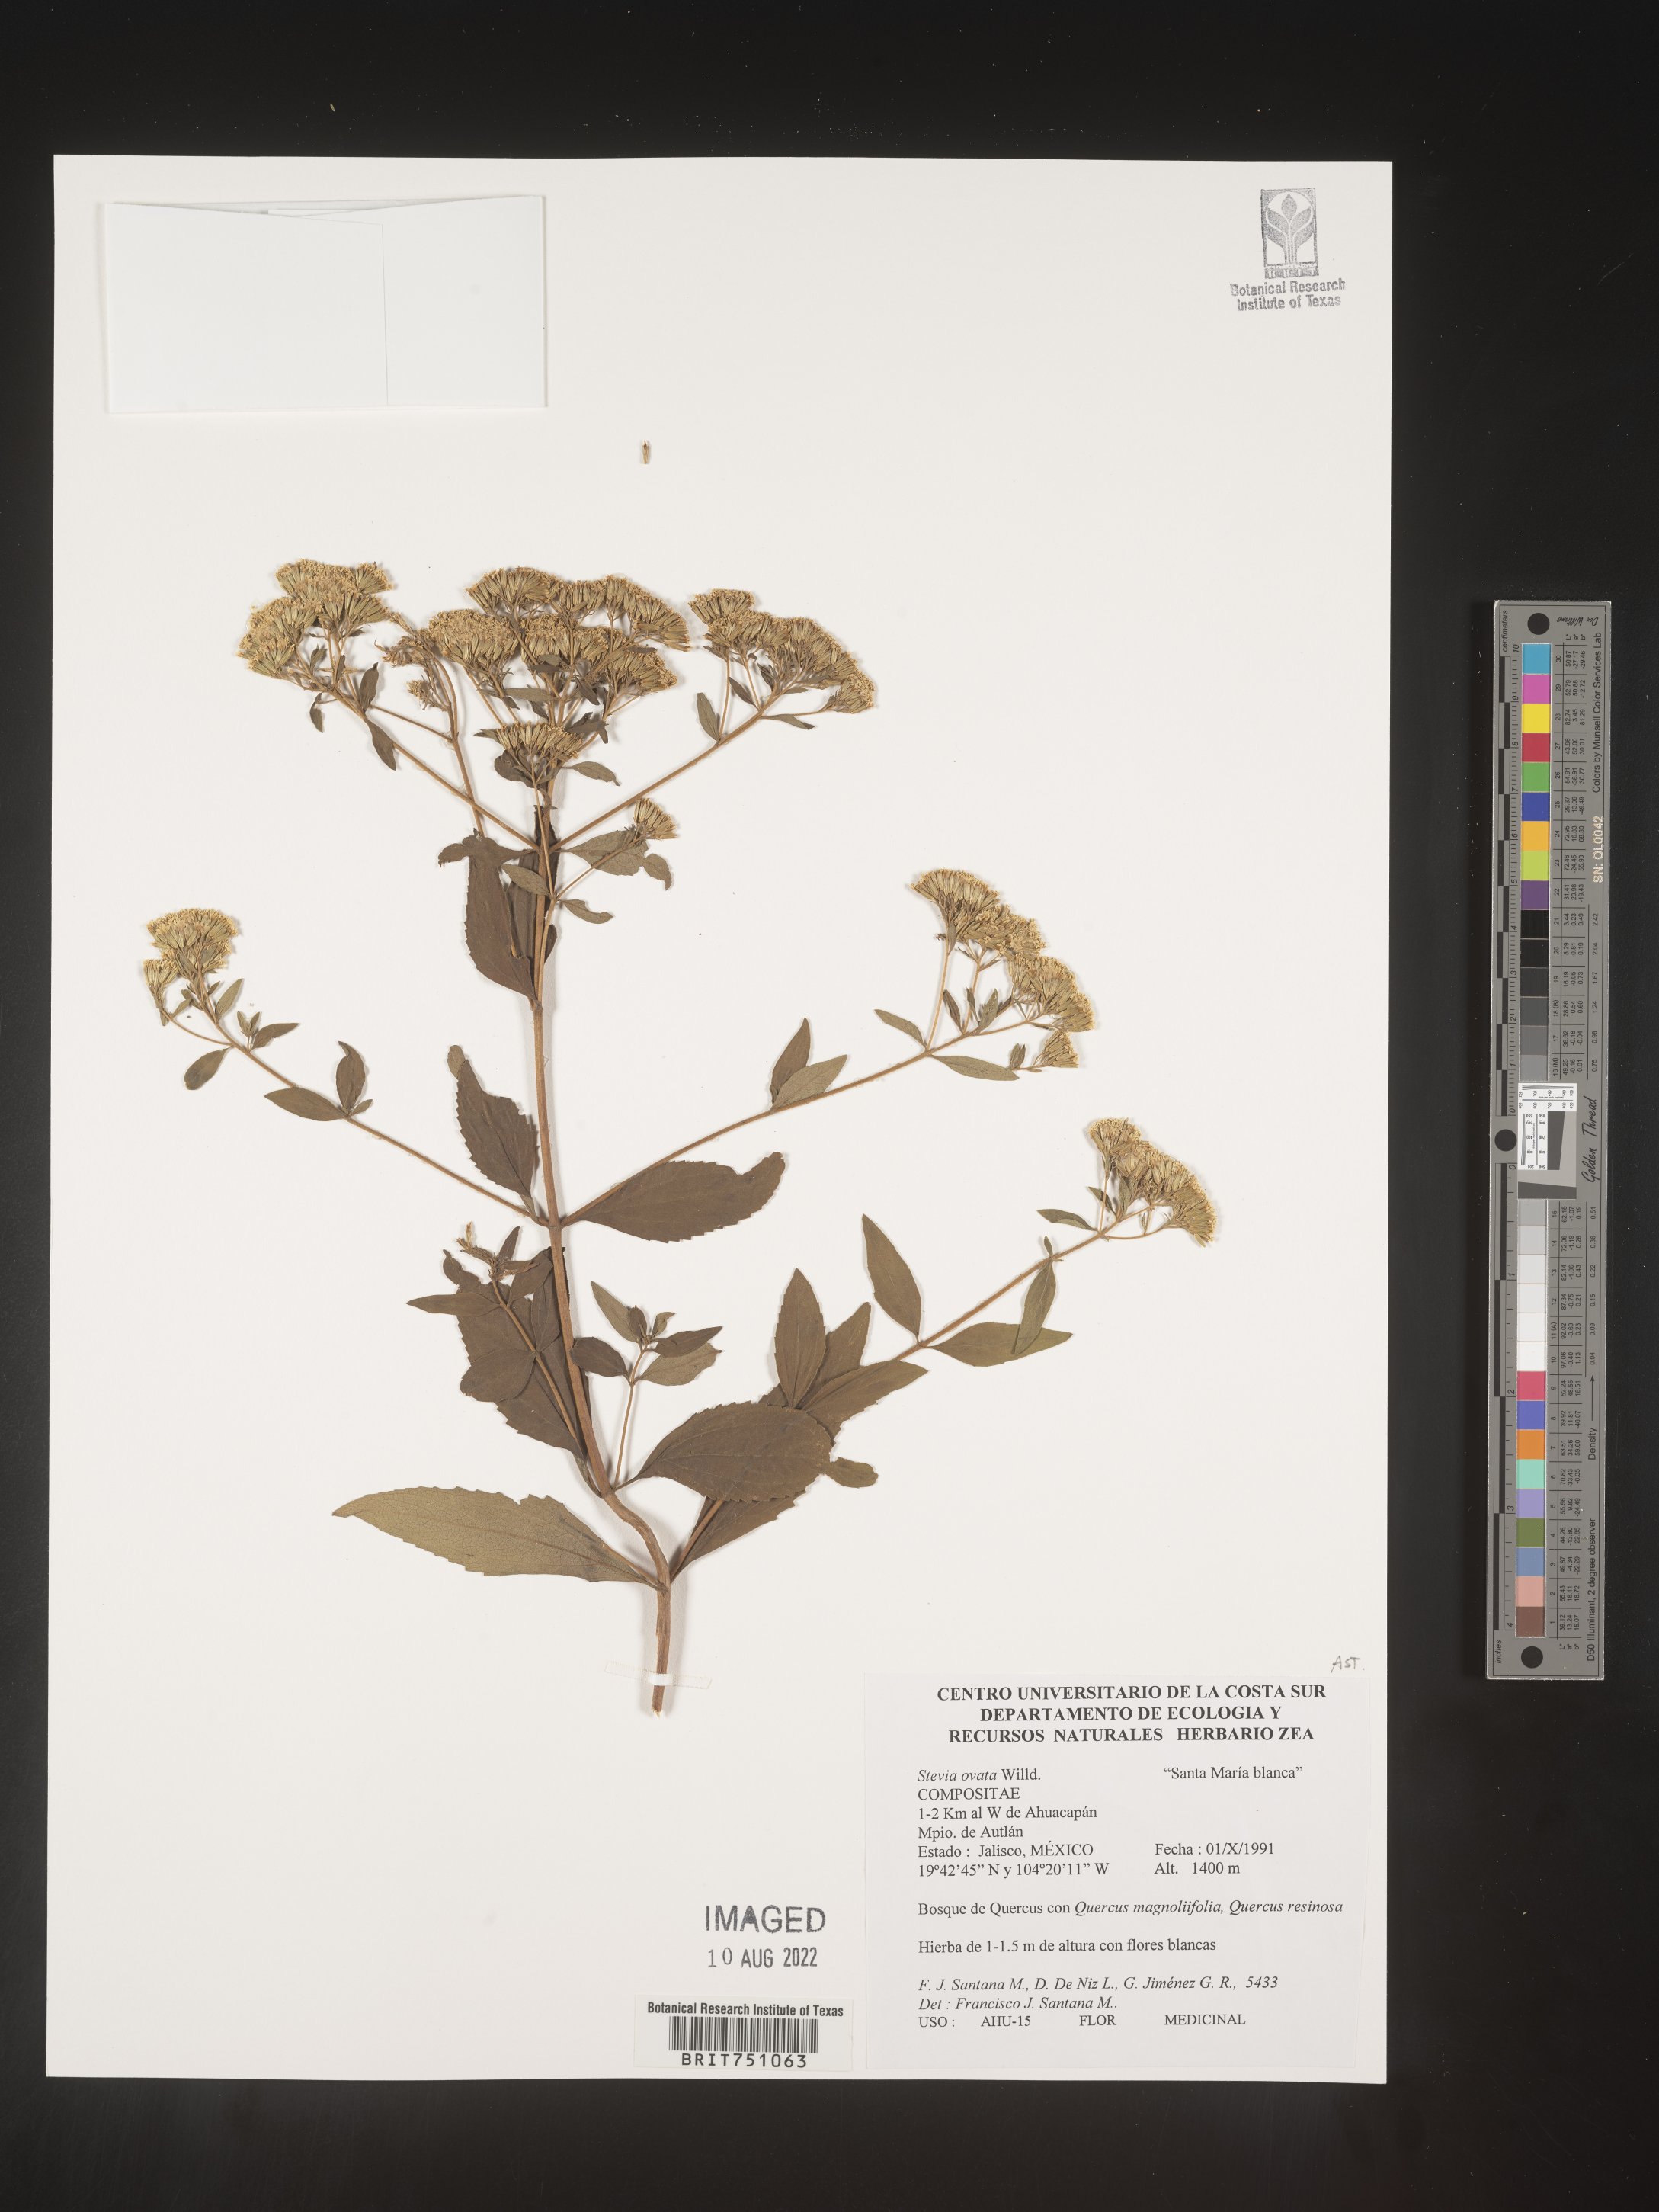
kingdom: Plantae
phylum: Tracheophyta
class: Magnoliopsida
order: Asterales
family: Asteraceae
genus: Stevia
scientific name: Stevia ovata
